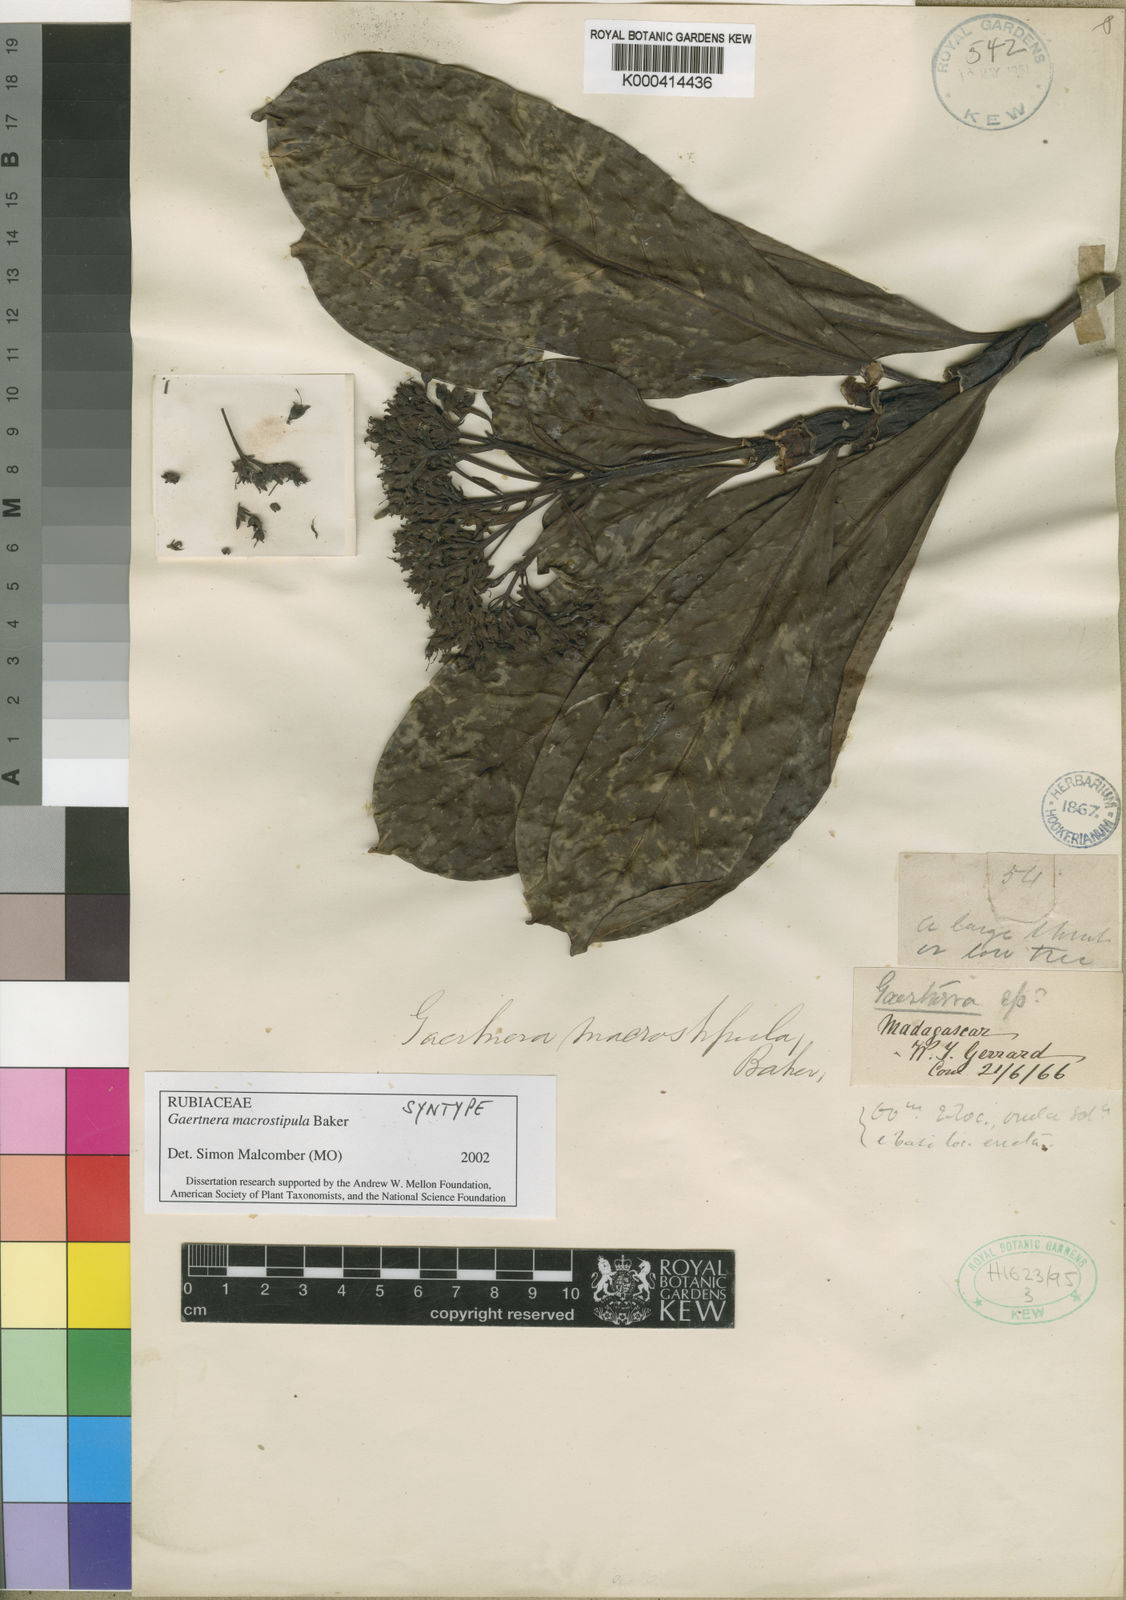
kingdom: Plantae
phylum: Tracheophyta
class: Magnoliopsida
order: Gentianales
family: Rubiaceae
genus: Gaertnera
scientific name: Gaertnera macrostipula
